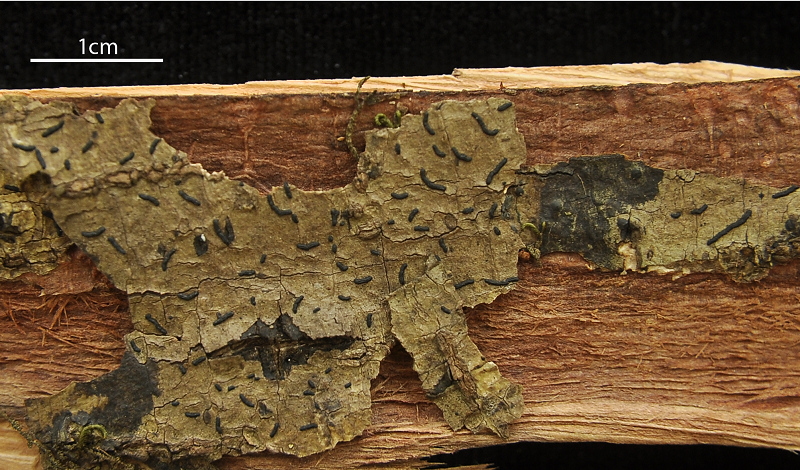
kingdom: Fungi
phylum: Ascomycota
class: Arthoniomycetes
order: Arthoniales
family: Opegraphaceae
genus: Opegrapha
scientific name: Opegrapha irosina
